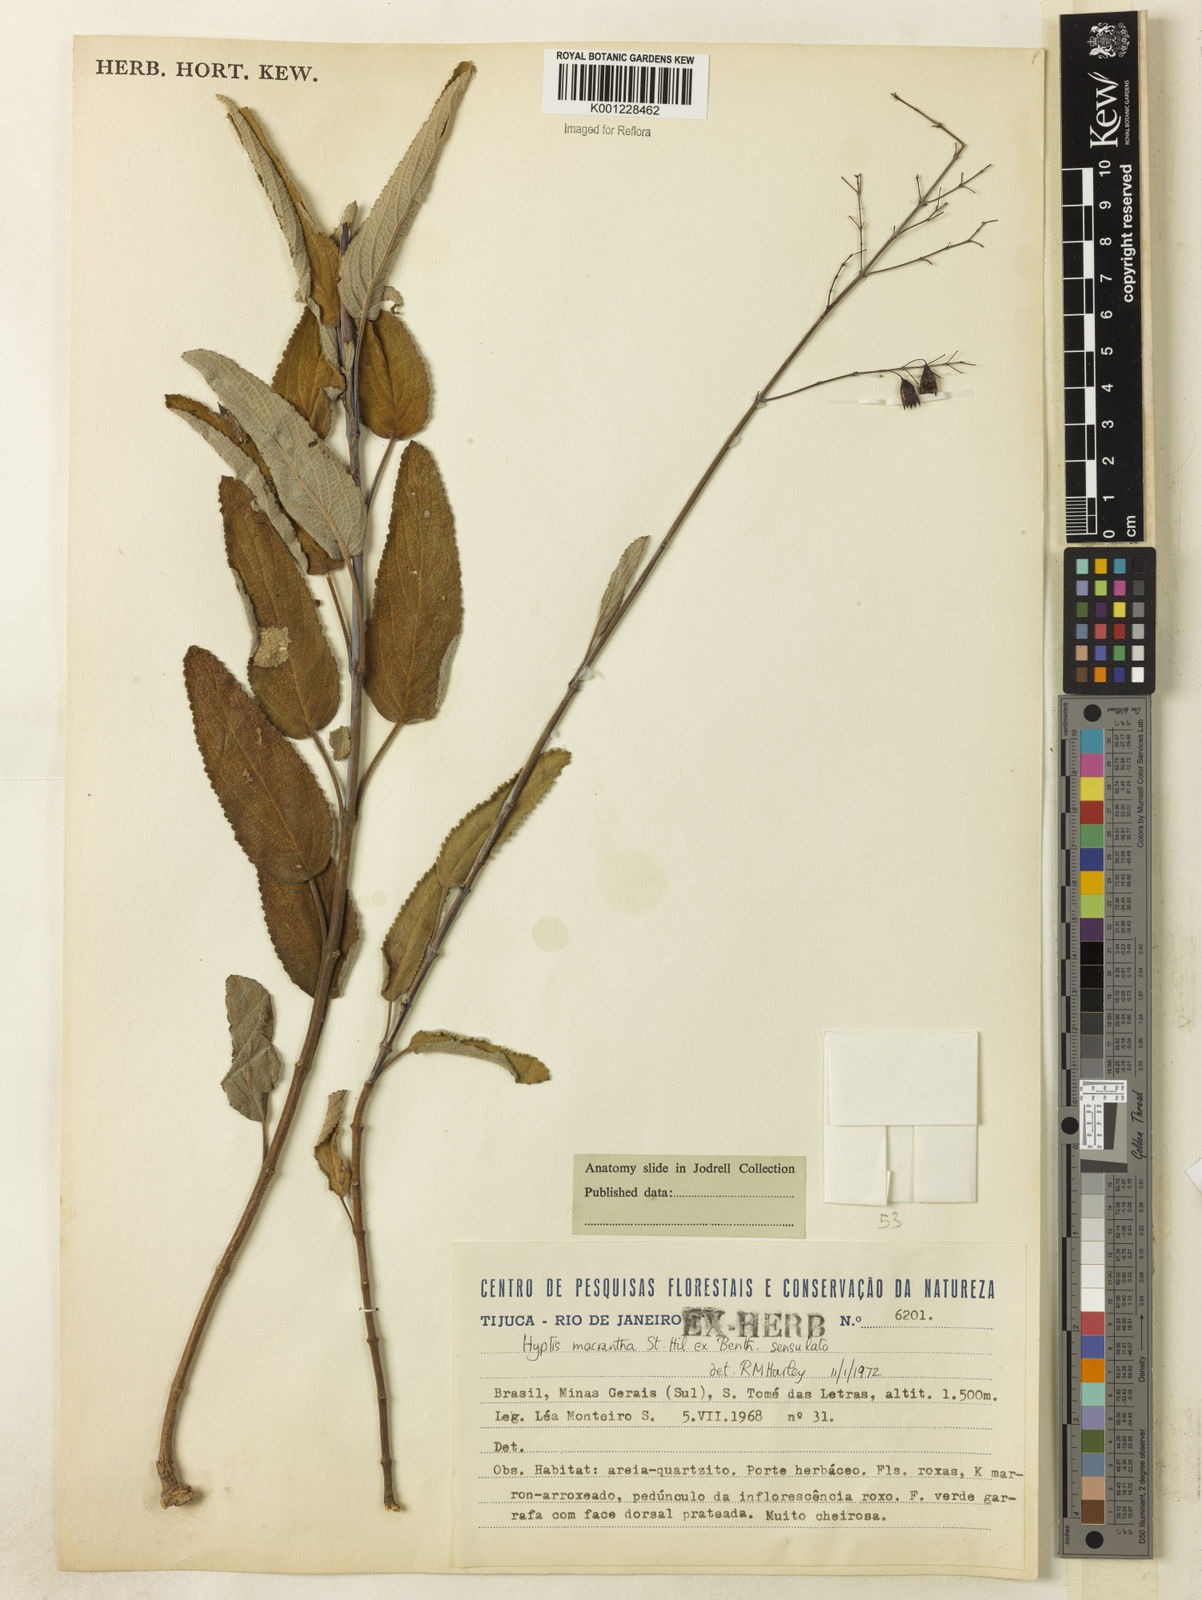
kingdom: Plantae
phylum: Tracheophyta
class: Magnoliopsida
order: Lamiales
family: Lamiaceae
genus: Hypenia
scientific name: Hypenia reticulata
